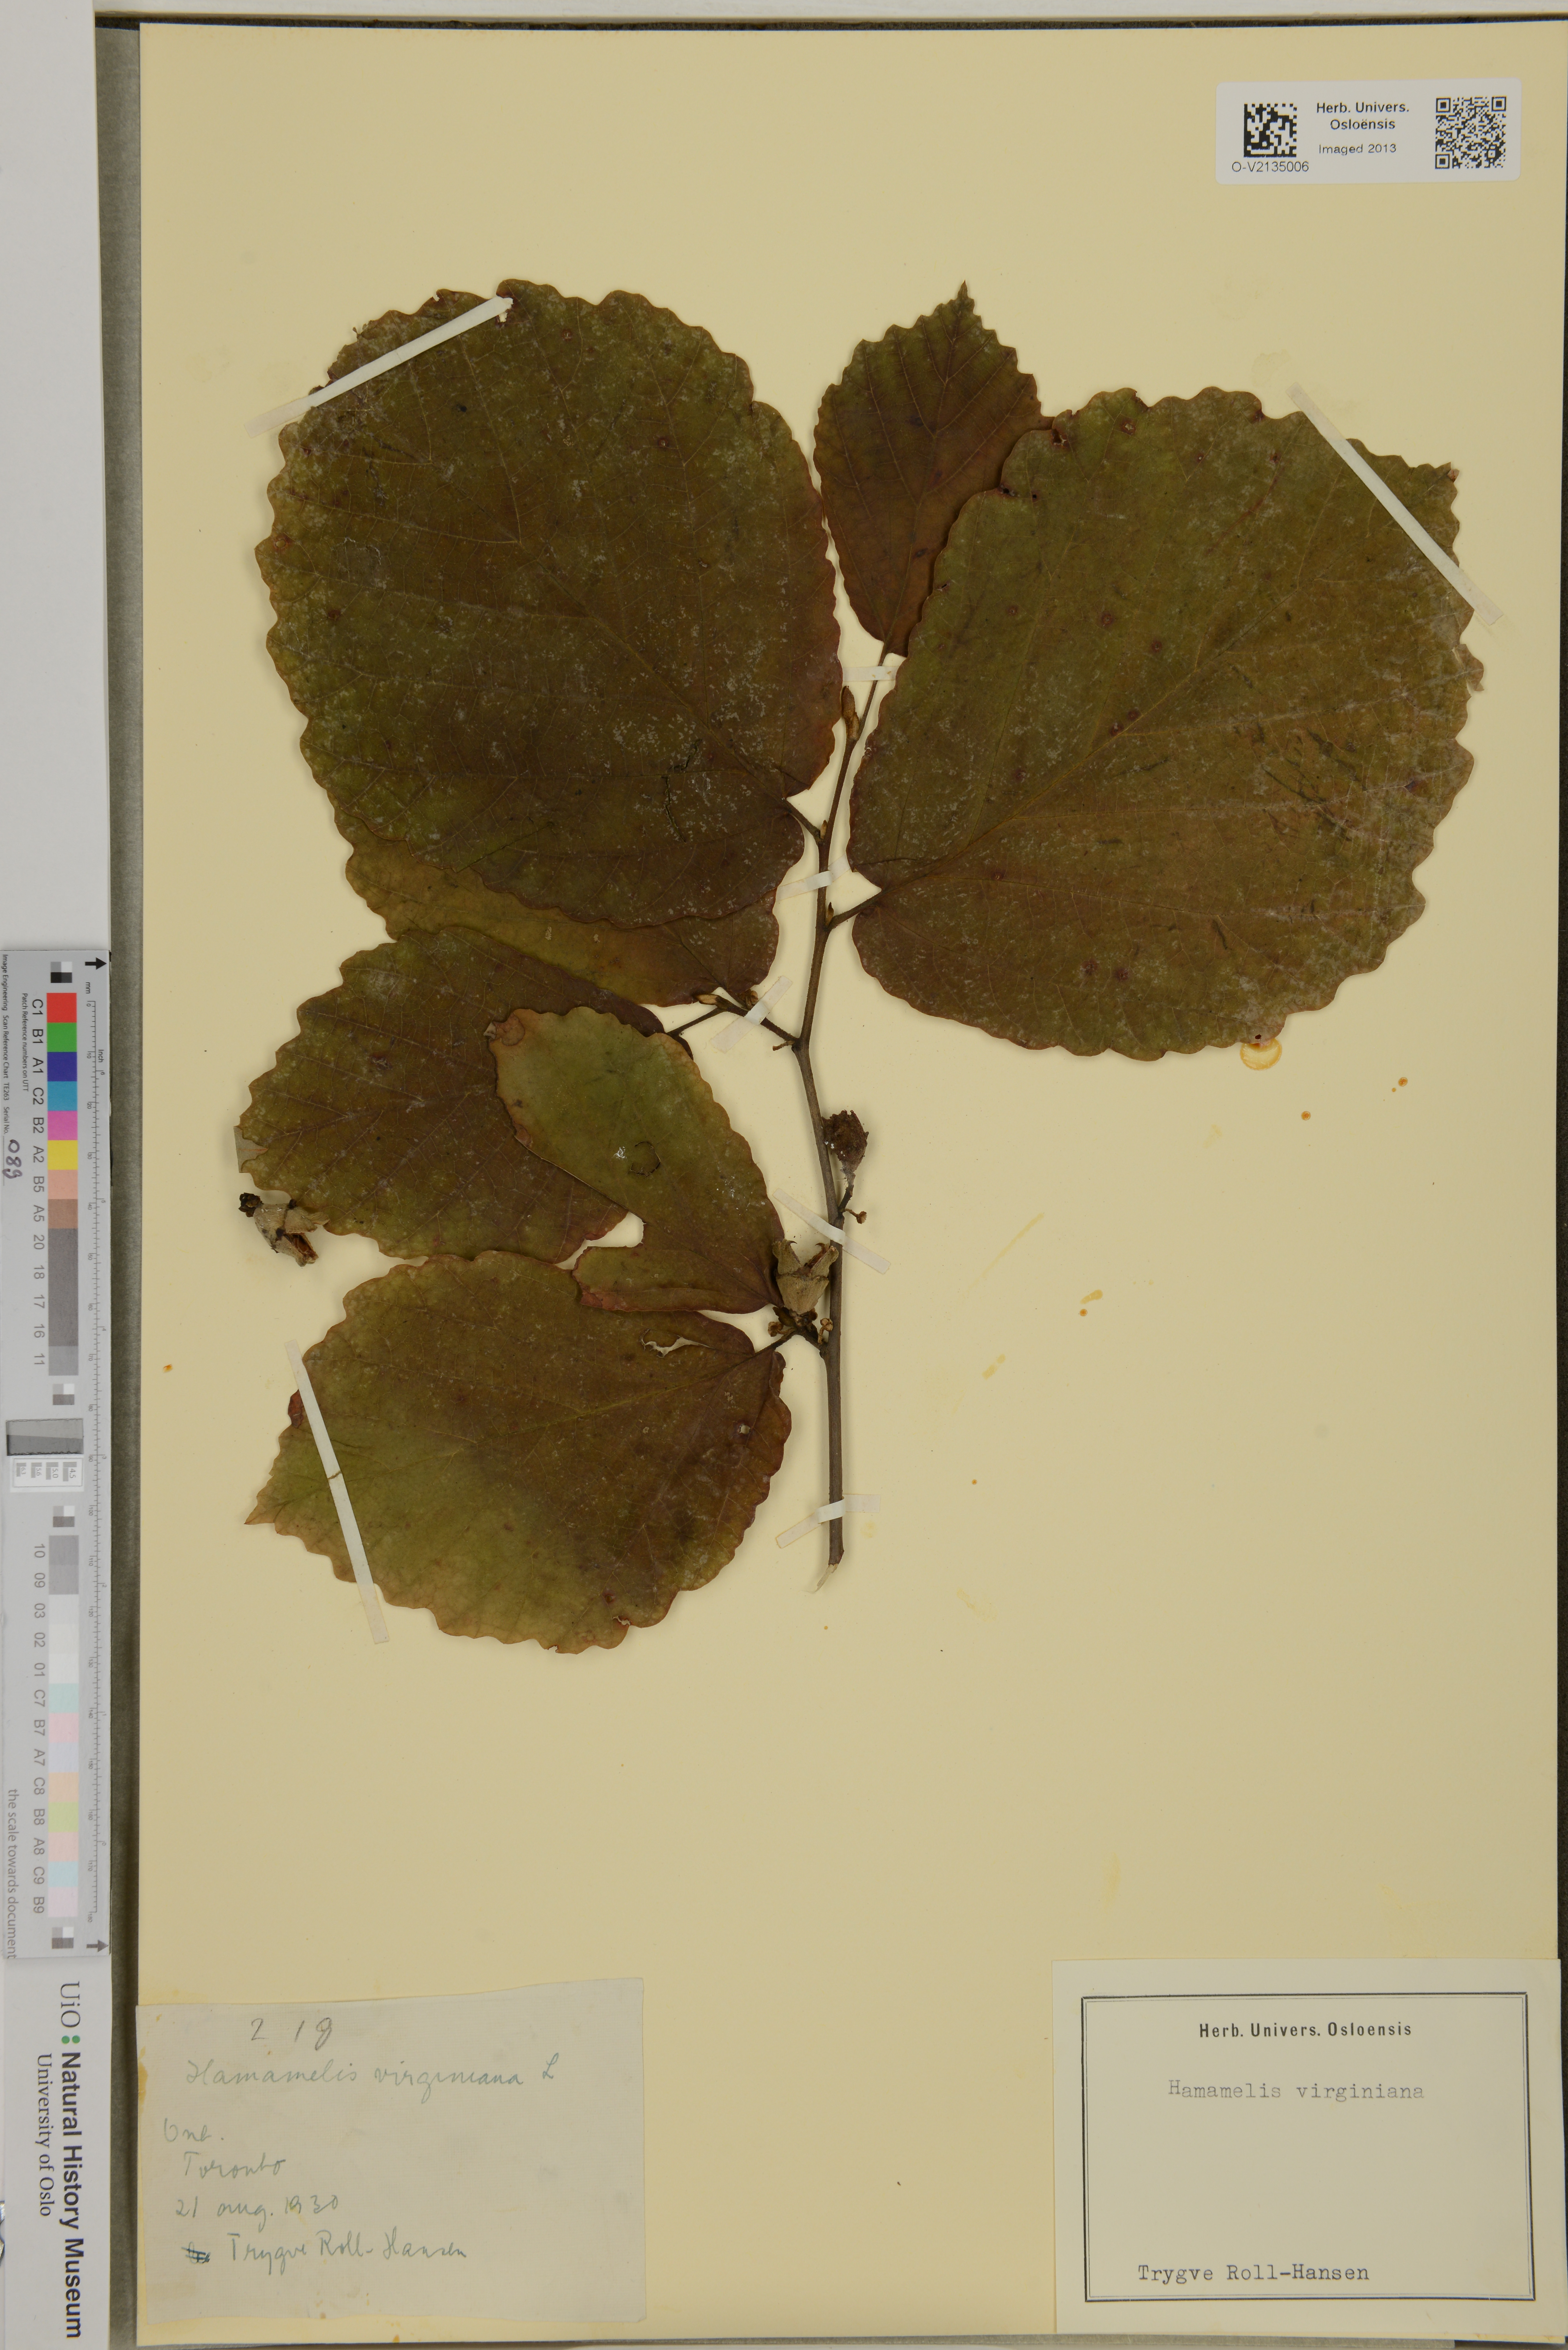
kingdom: Plantae
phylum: Tracheophyta
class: Magnoliopsida
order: Saxifragales
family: Hamamelidaceae
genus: Hamamelis
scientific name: Hamamelis virginiana
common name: Witch-hazel
